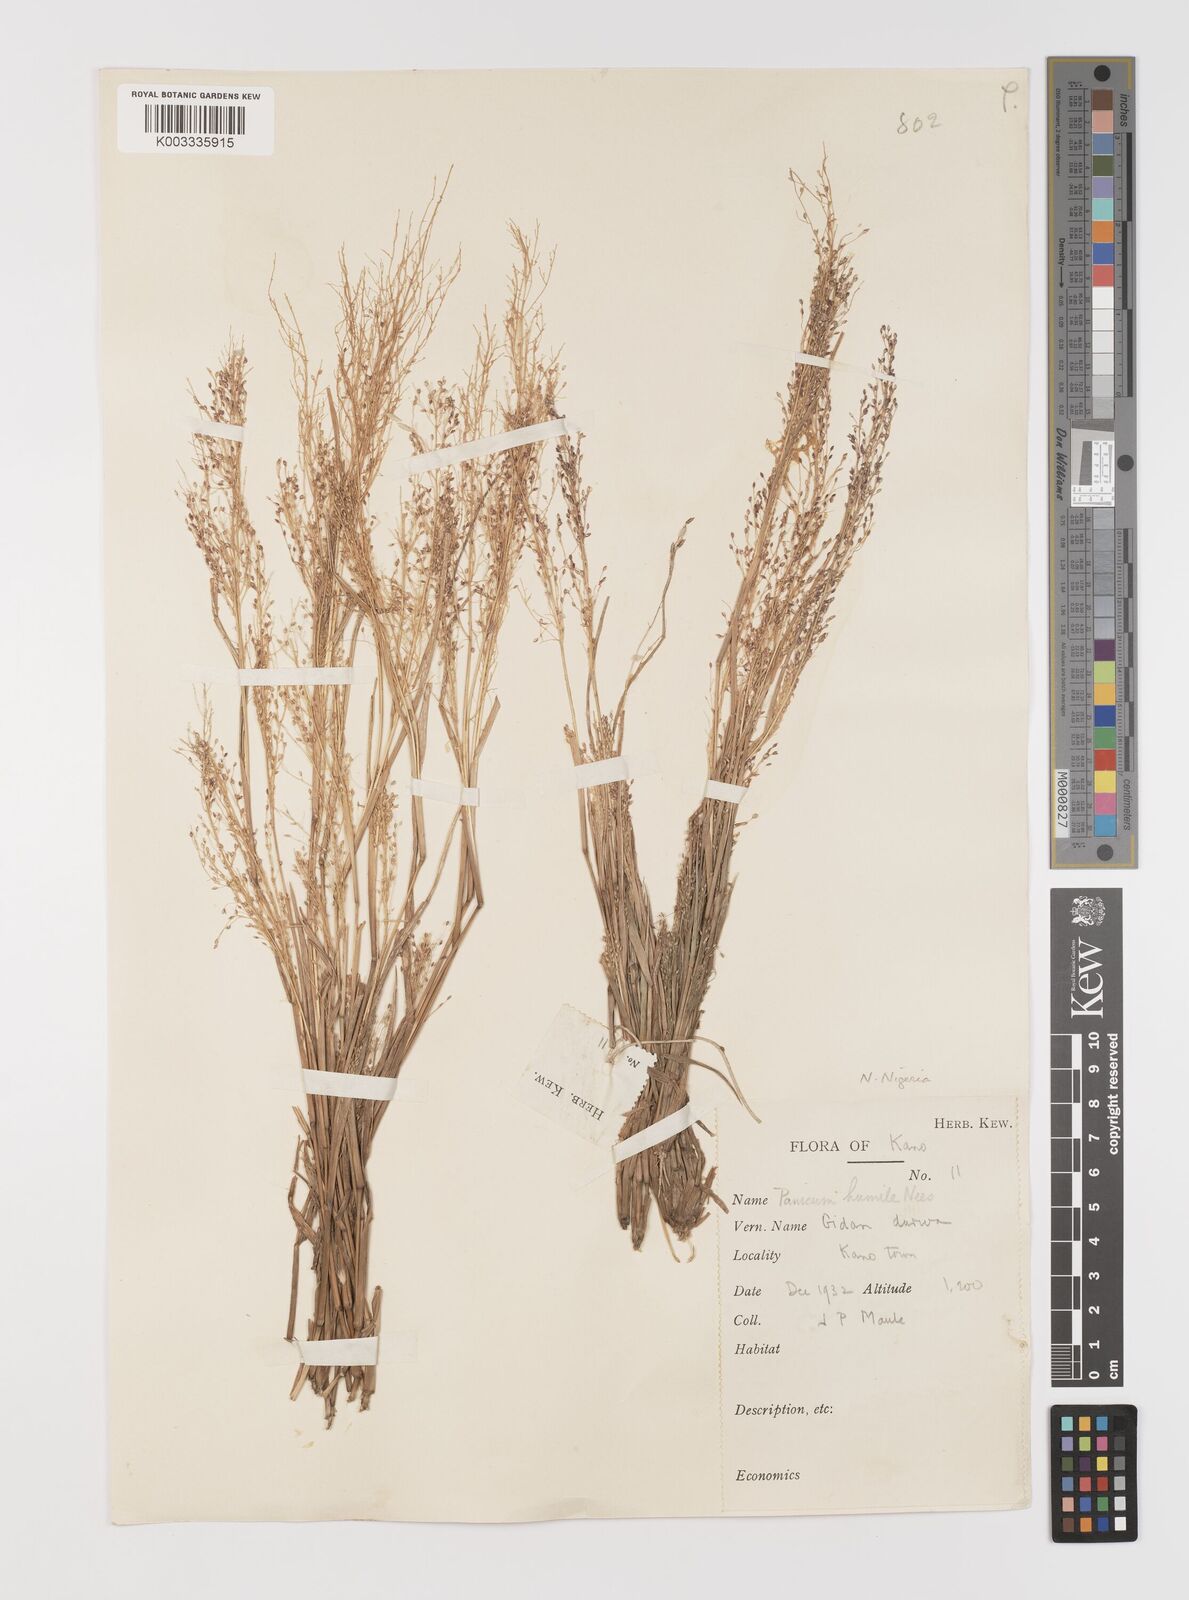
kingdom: Plantae
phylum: Tracheophyta
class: Liliopsida
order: Poales
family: Poaceae
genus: Panicum
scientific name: Panicum humile
